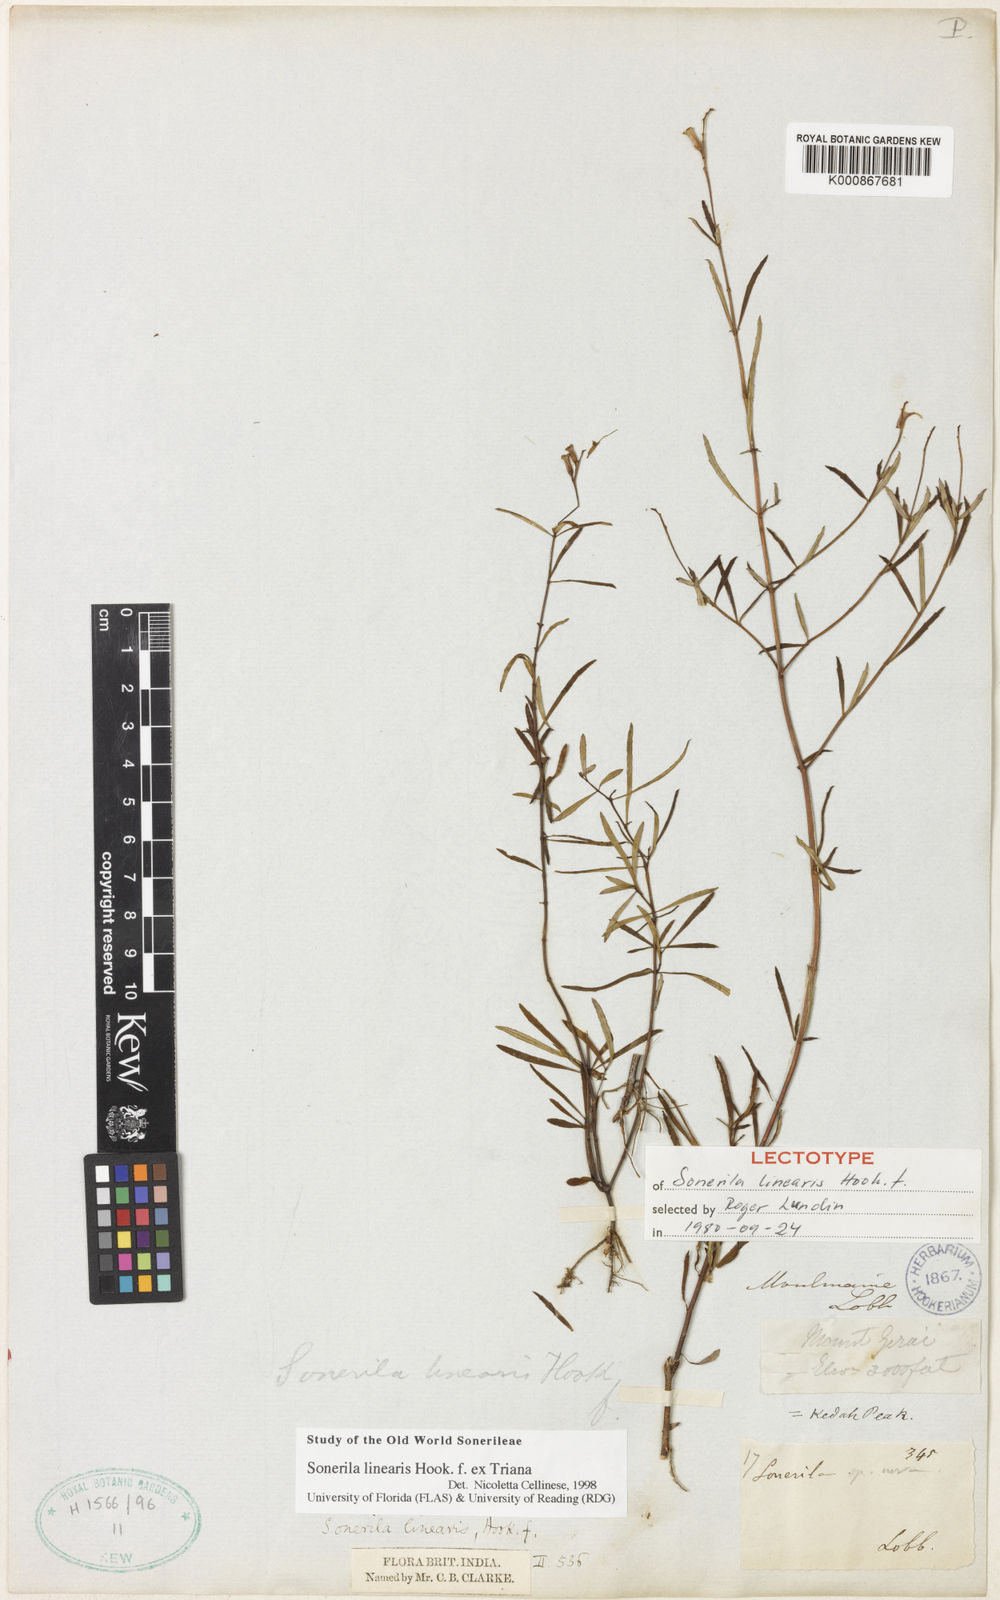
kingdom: Plantae
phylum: Tracheophyta
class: Magnoliopsida
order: Myrtales
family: Melastomataceae
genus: Sonerila
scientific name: Sonerila linearis
